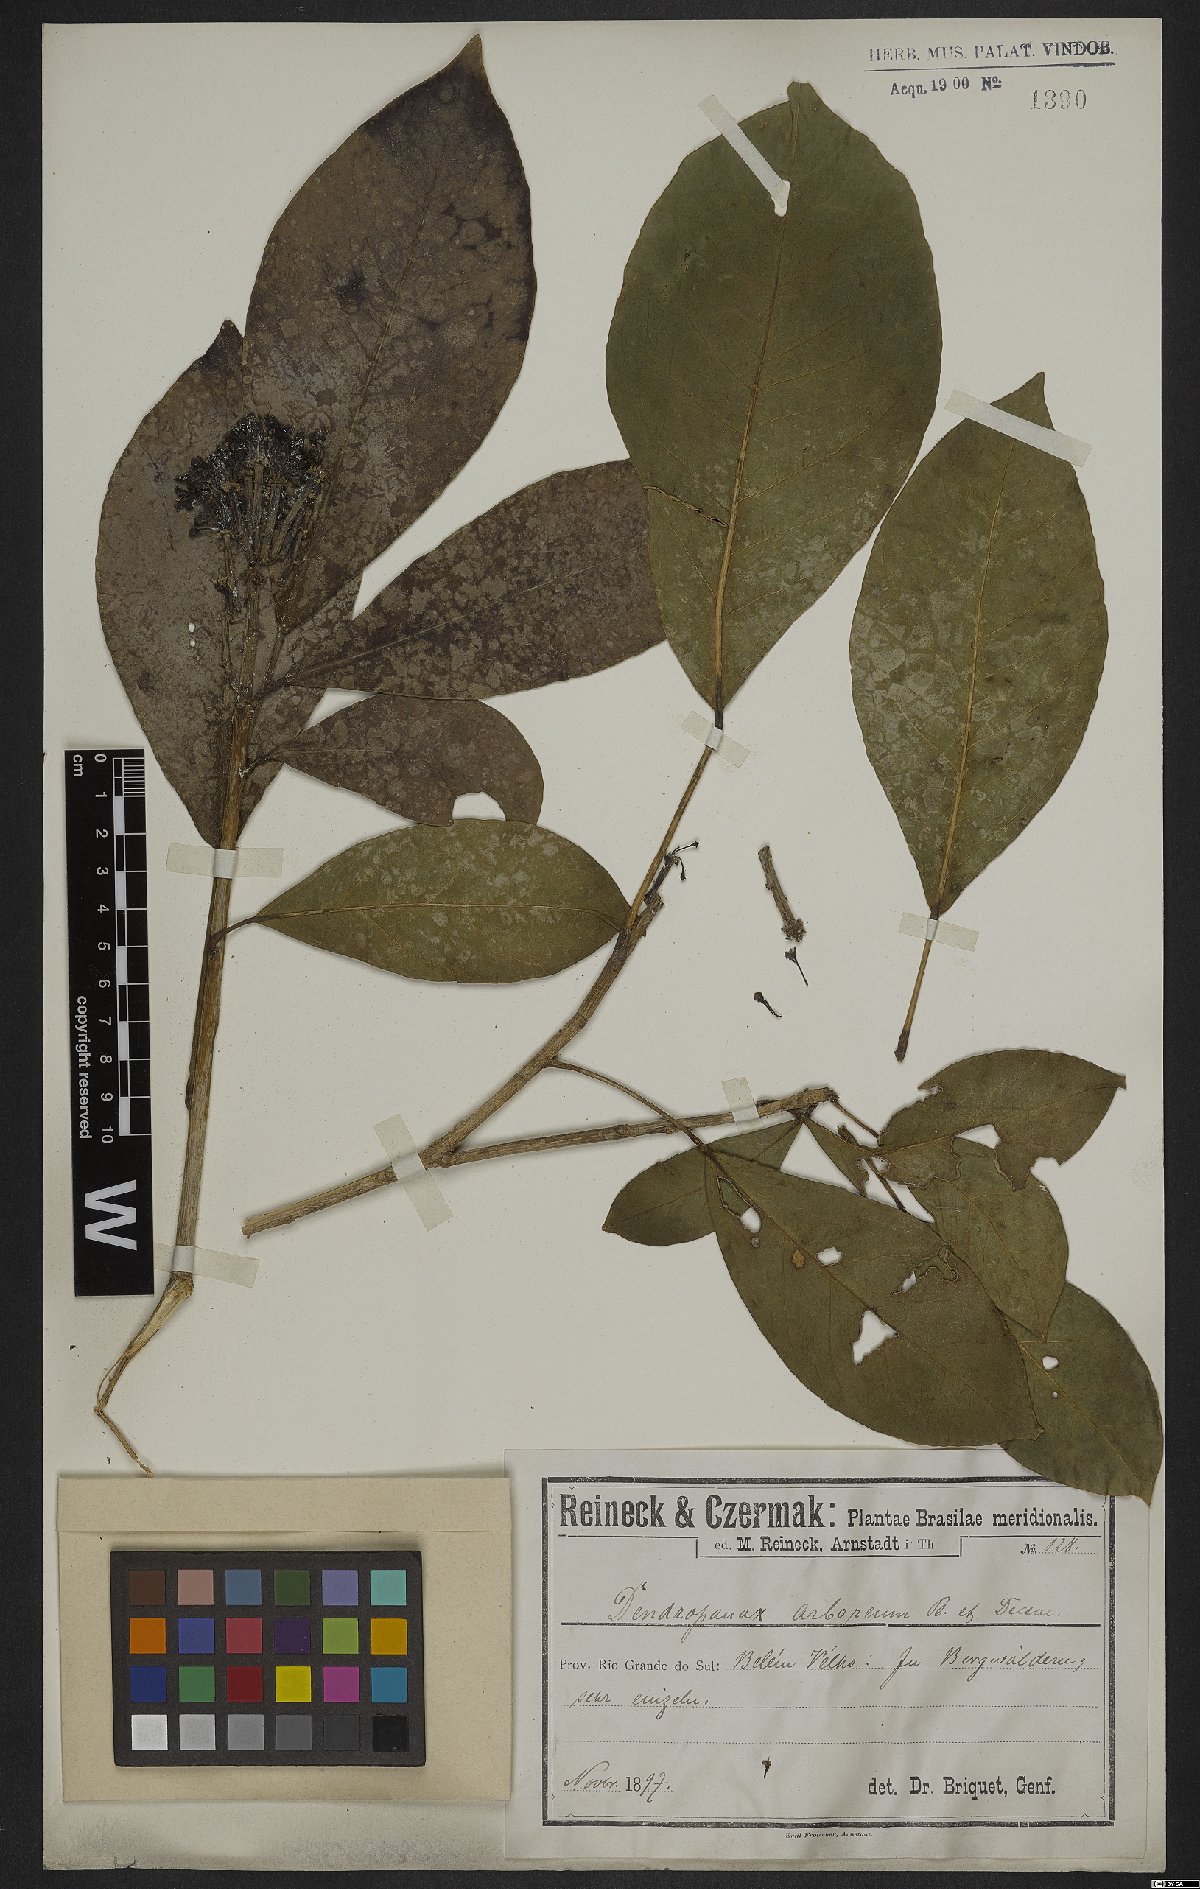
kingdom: Plantae
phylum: Tracheophyta
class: Magnoliopsida
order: Apiales
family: Araliaceae
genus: Dendropanax
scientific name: Dendropanax arboreus
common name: Potato-wood
